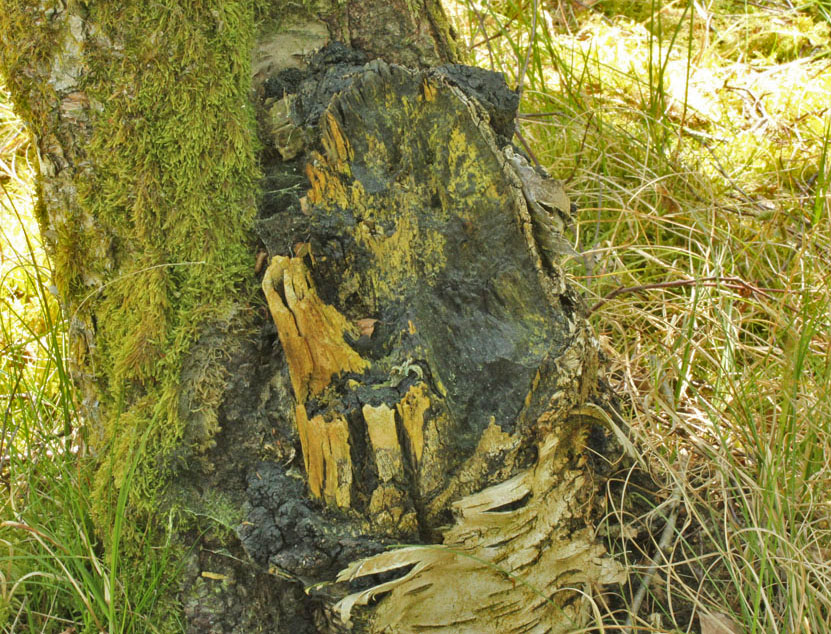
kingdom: Fungi
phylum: Basidiomycota
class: Agaricomycetes
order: Hymenochaetales
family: Hymenochaetaceae
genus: Inonotus
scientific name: Inonotus obliquus
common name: birke-spejlporesvamp
